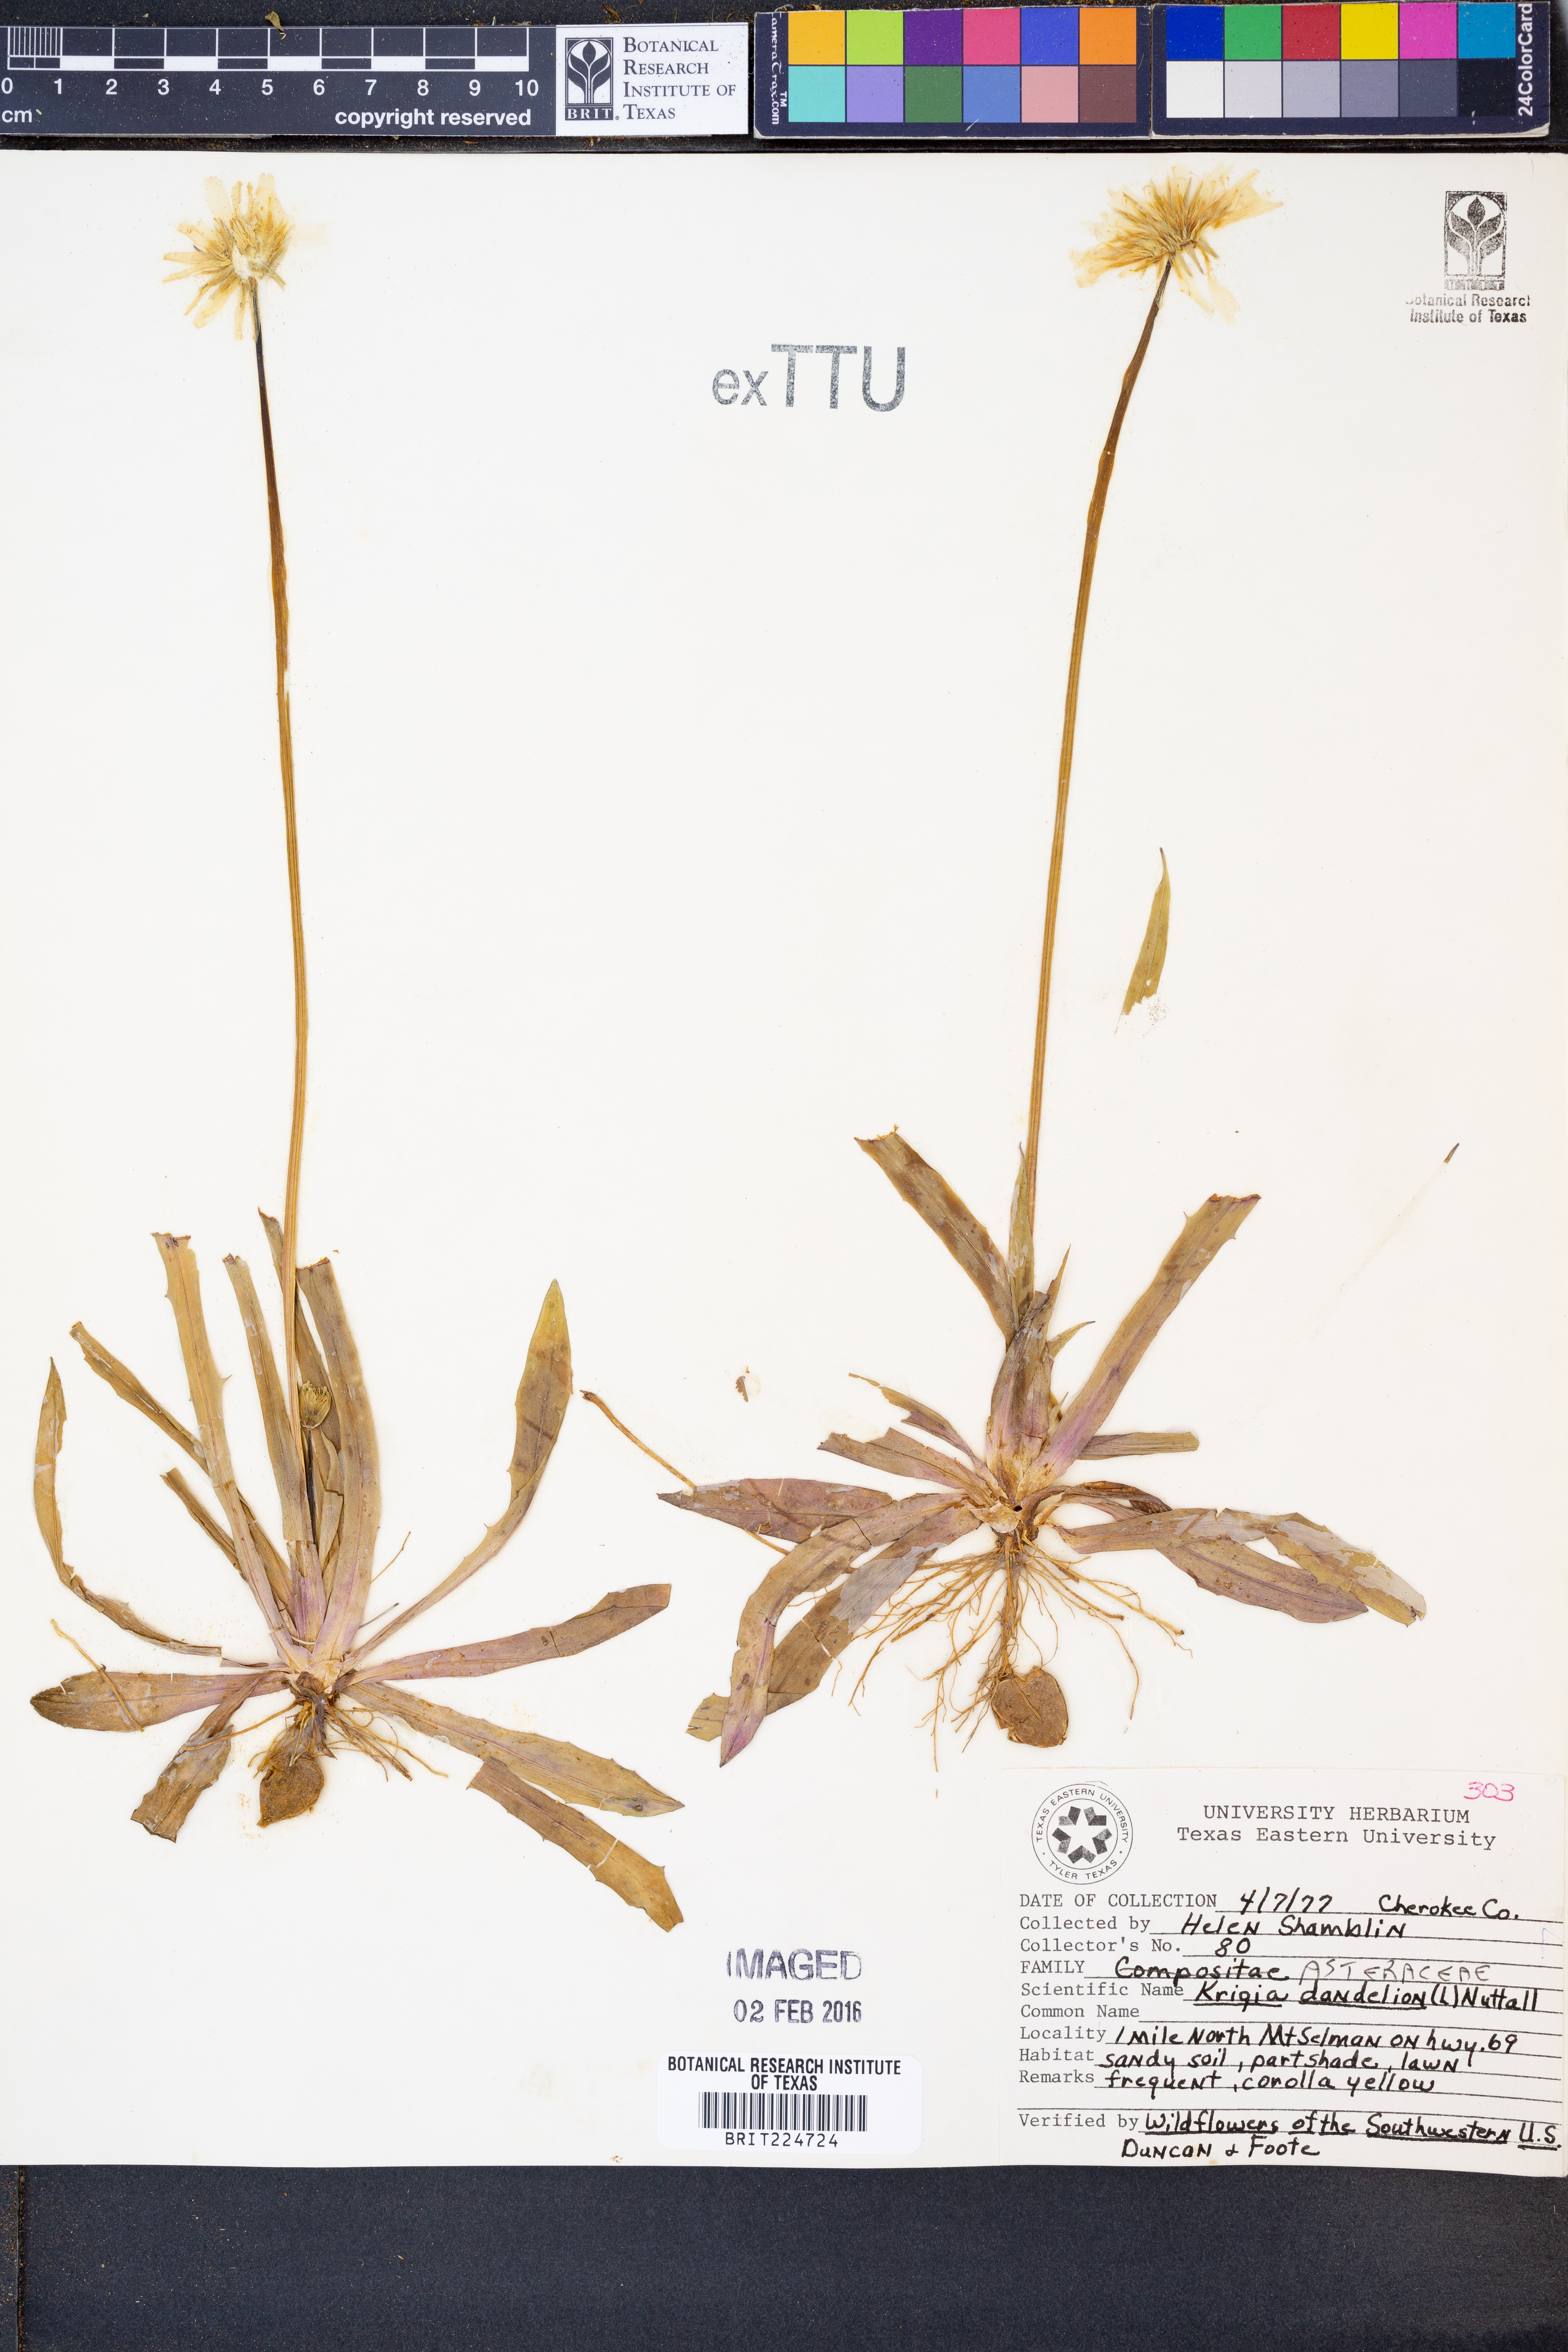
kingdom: Plantae
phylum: Tracheophyta
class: Magnoliopsida
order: Asterales
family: Asteraceae
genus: Krigia
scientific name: Krigia dandelion
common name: Colonial dwarf-dandelion
